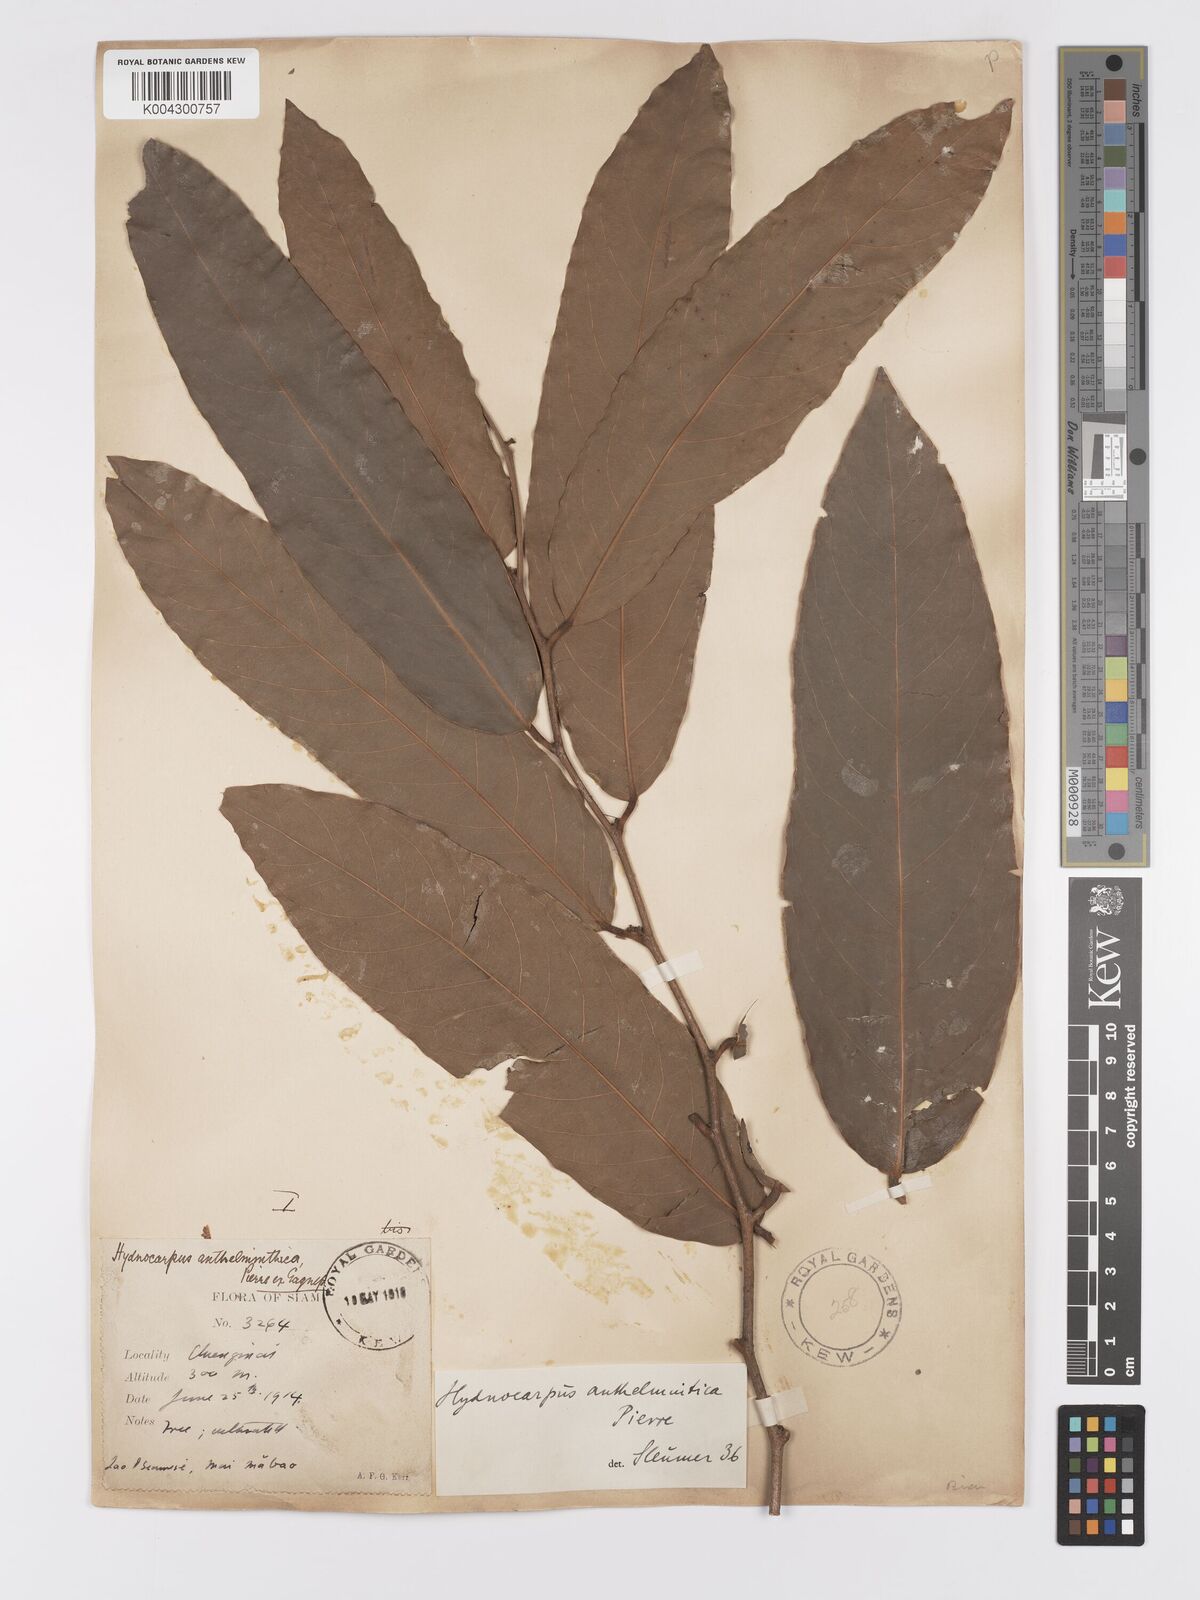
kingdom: Plantae
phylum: Tracheophyta
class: Magnoliopsida
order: Malpighiales
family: Achariaceae
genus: Hydnocarpus
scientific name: Hydnocarpus castaneus
